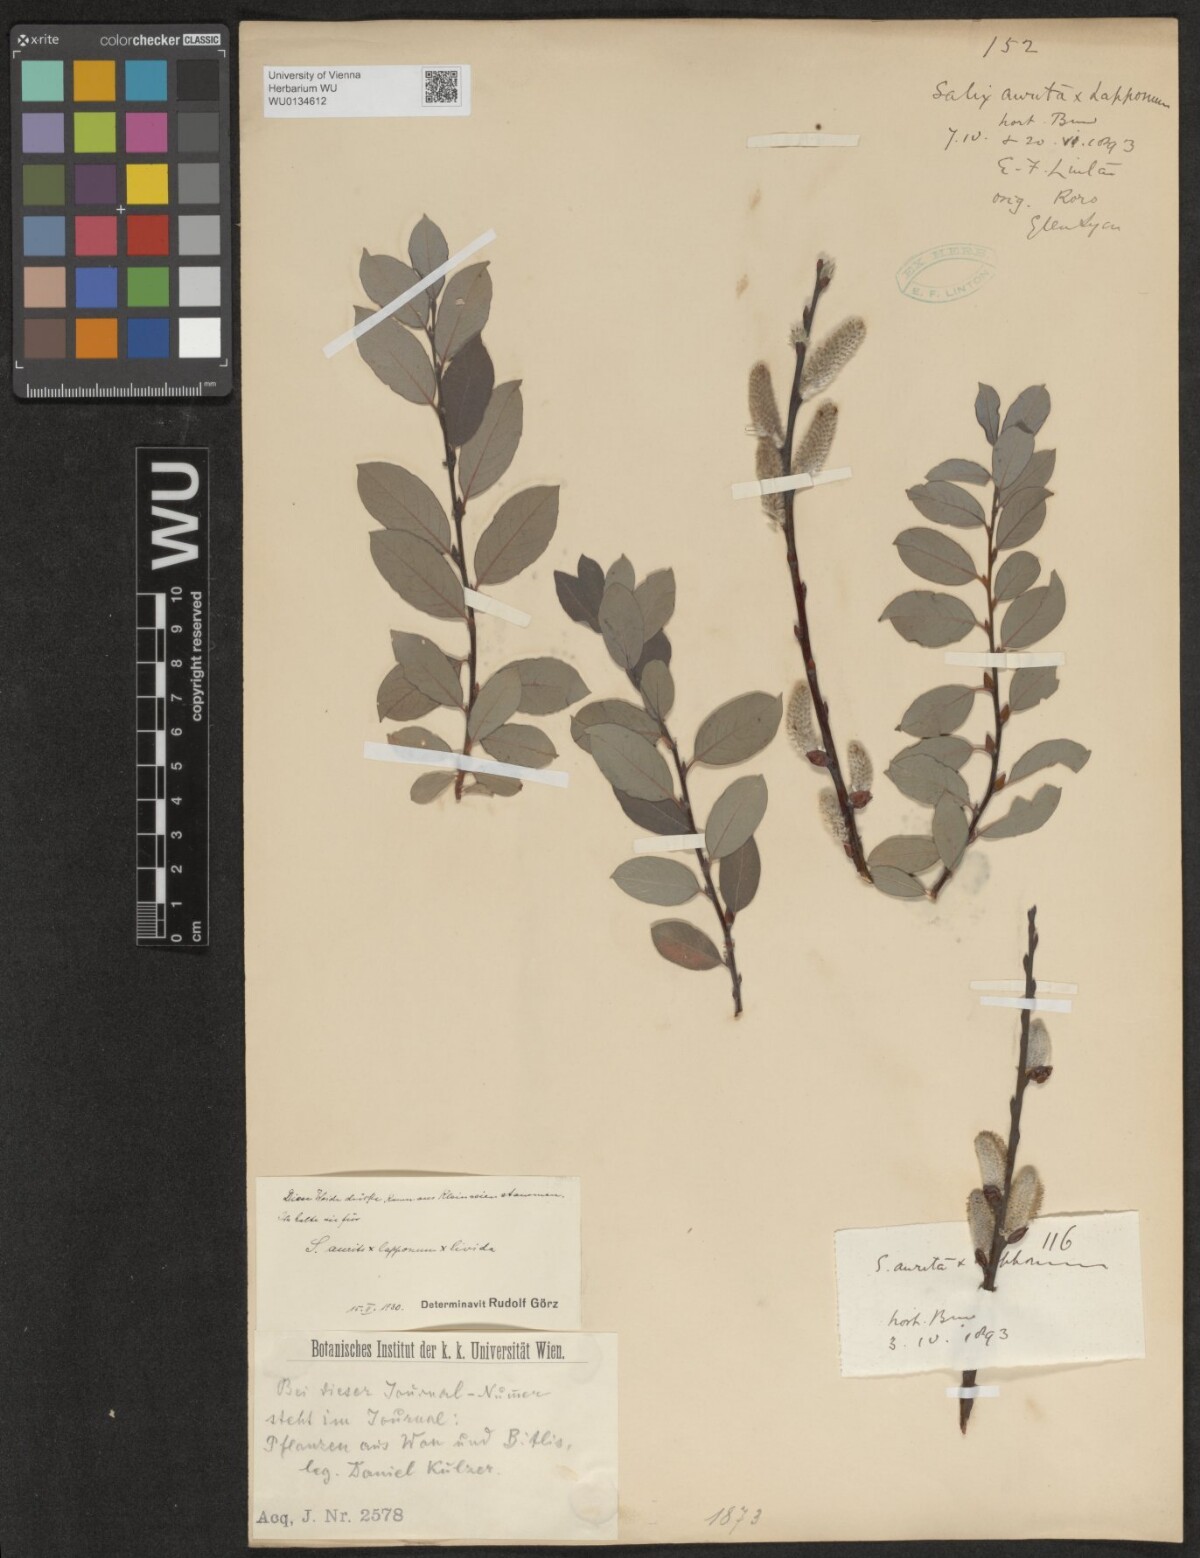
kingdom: Plantae
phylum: Tracheophyta
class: Magnoliopsida
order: Malpighiales
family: Salicaceae
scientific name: Salicaceae
